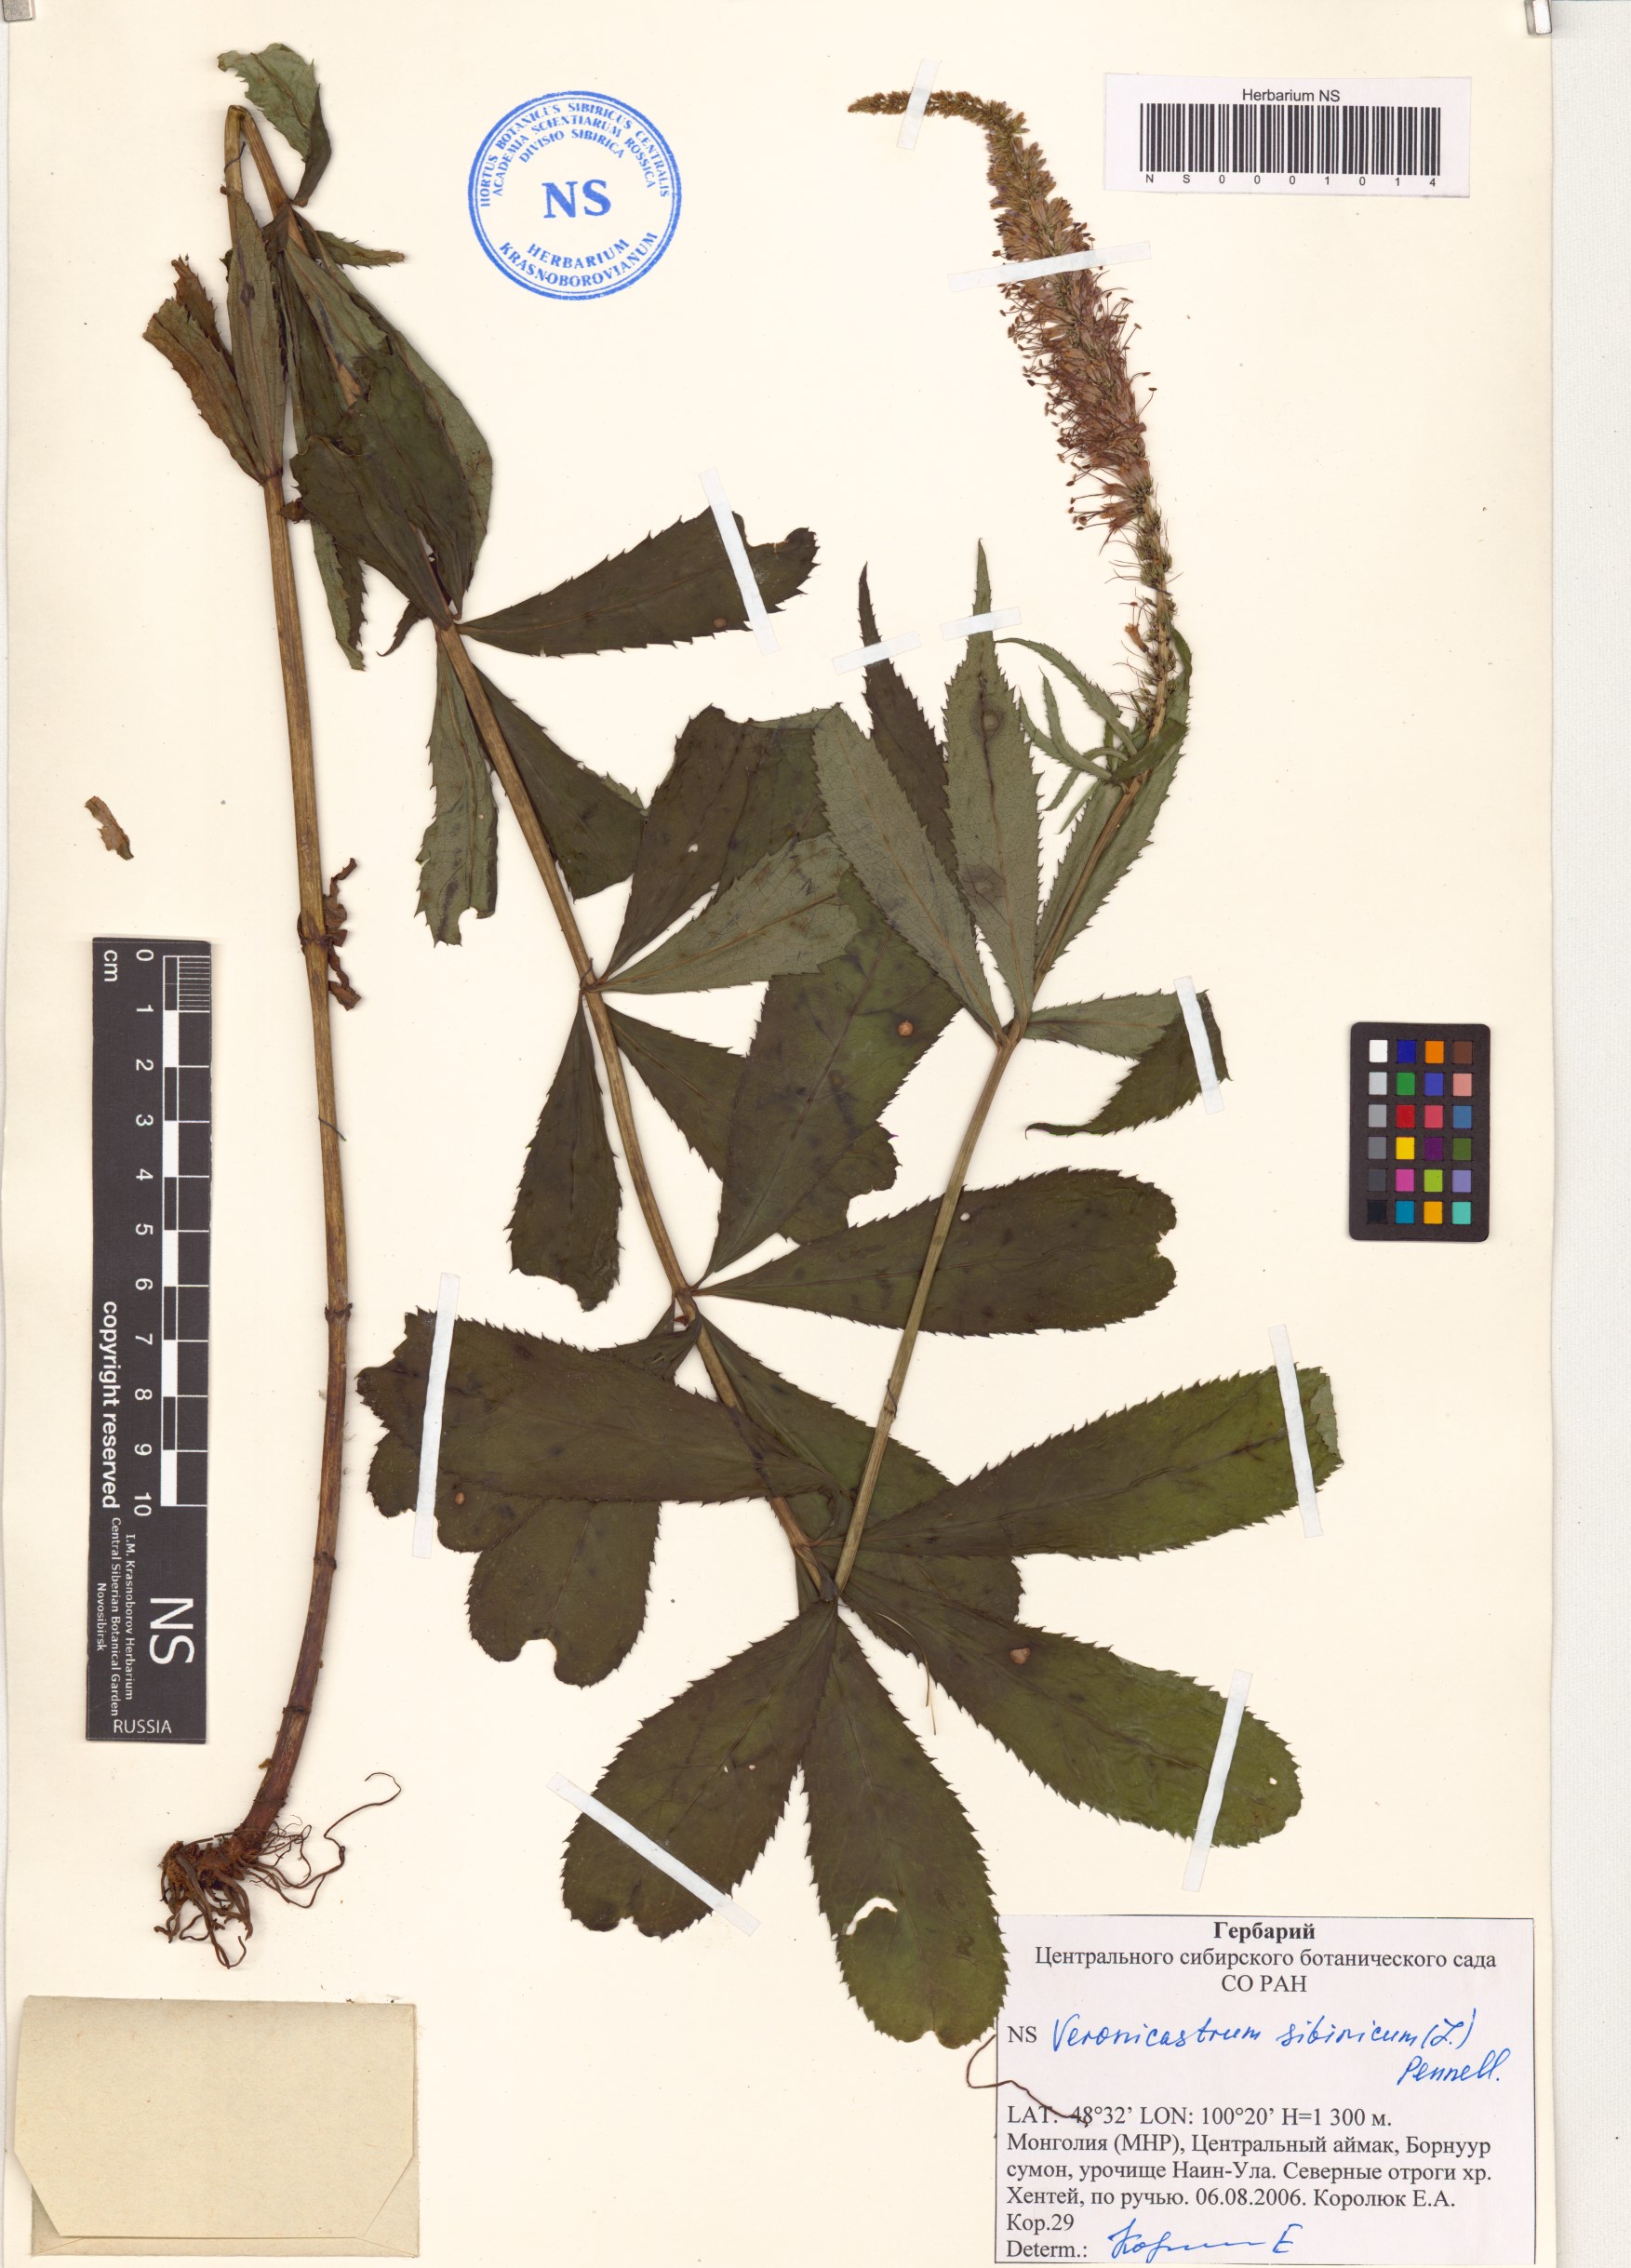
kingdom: Plantae
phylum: Tracheophyta
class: Magnoliopsida
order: Lamiales
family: Plantaginaceae
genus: Veronicastrum
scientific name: Veronicastrum sibiricum
